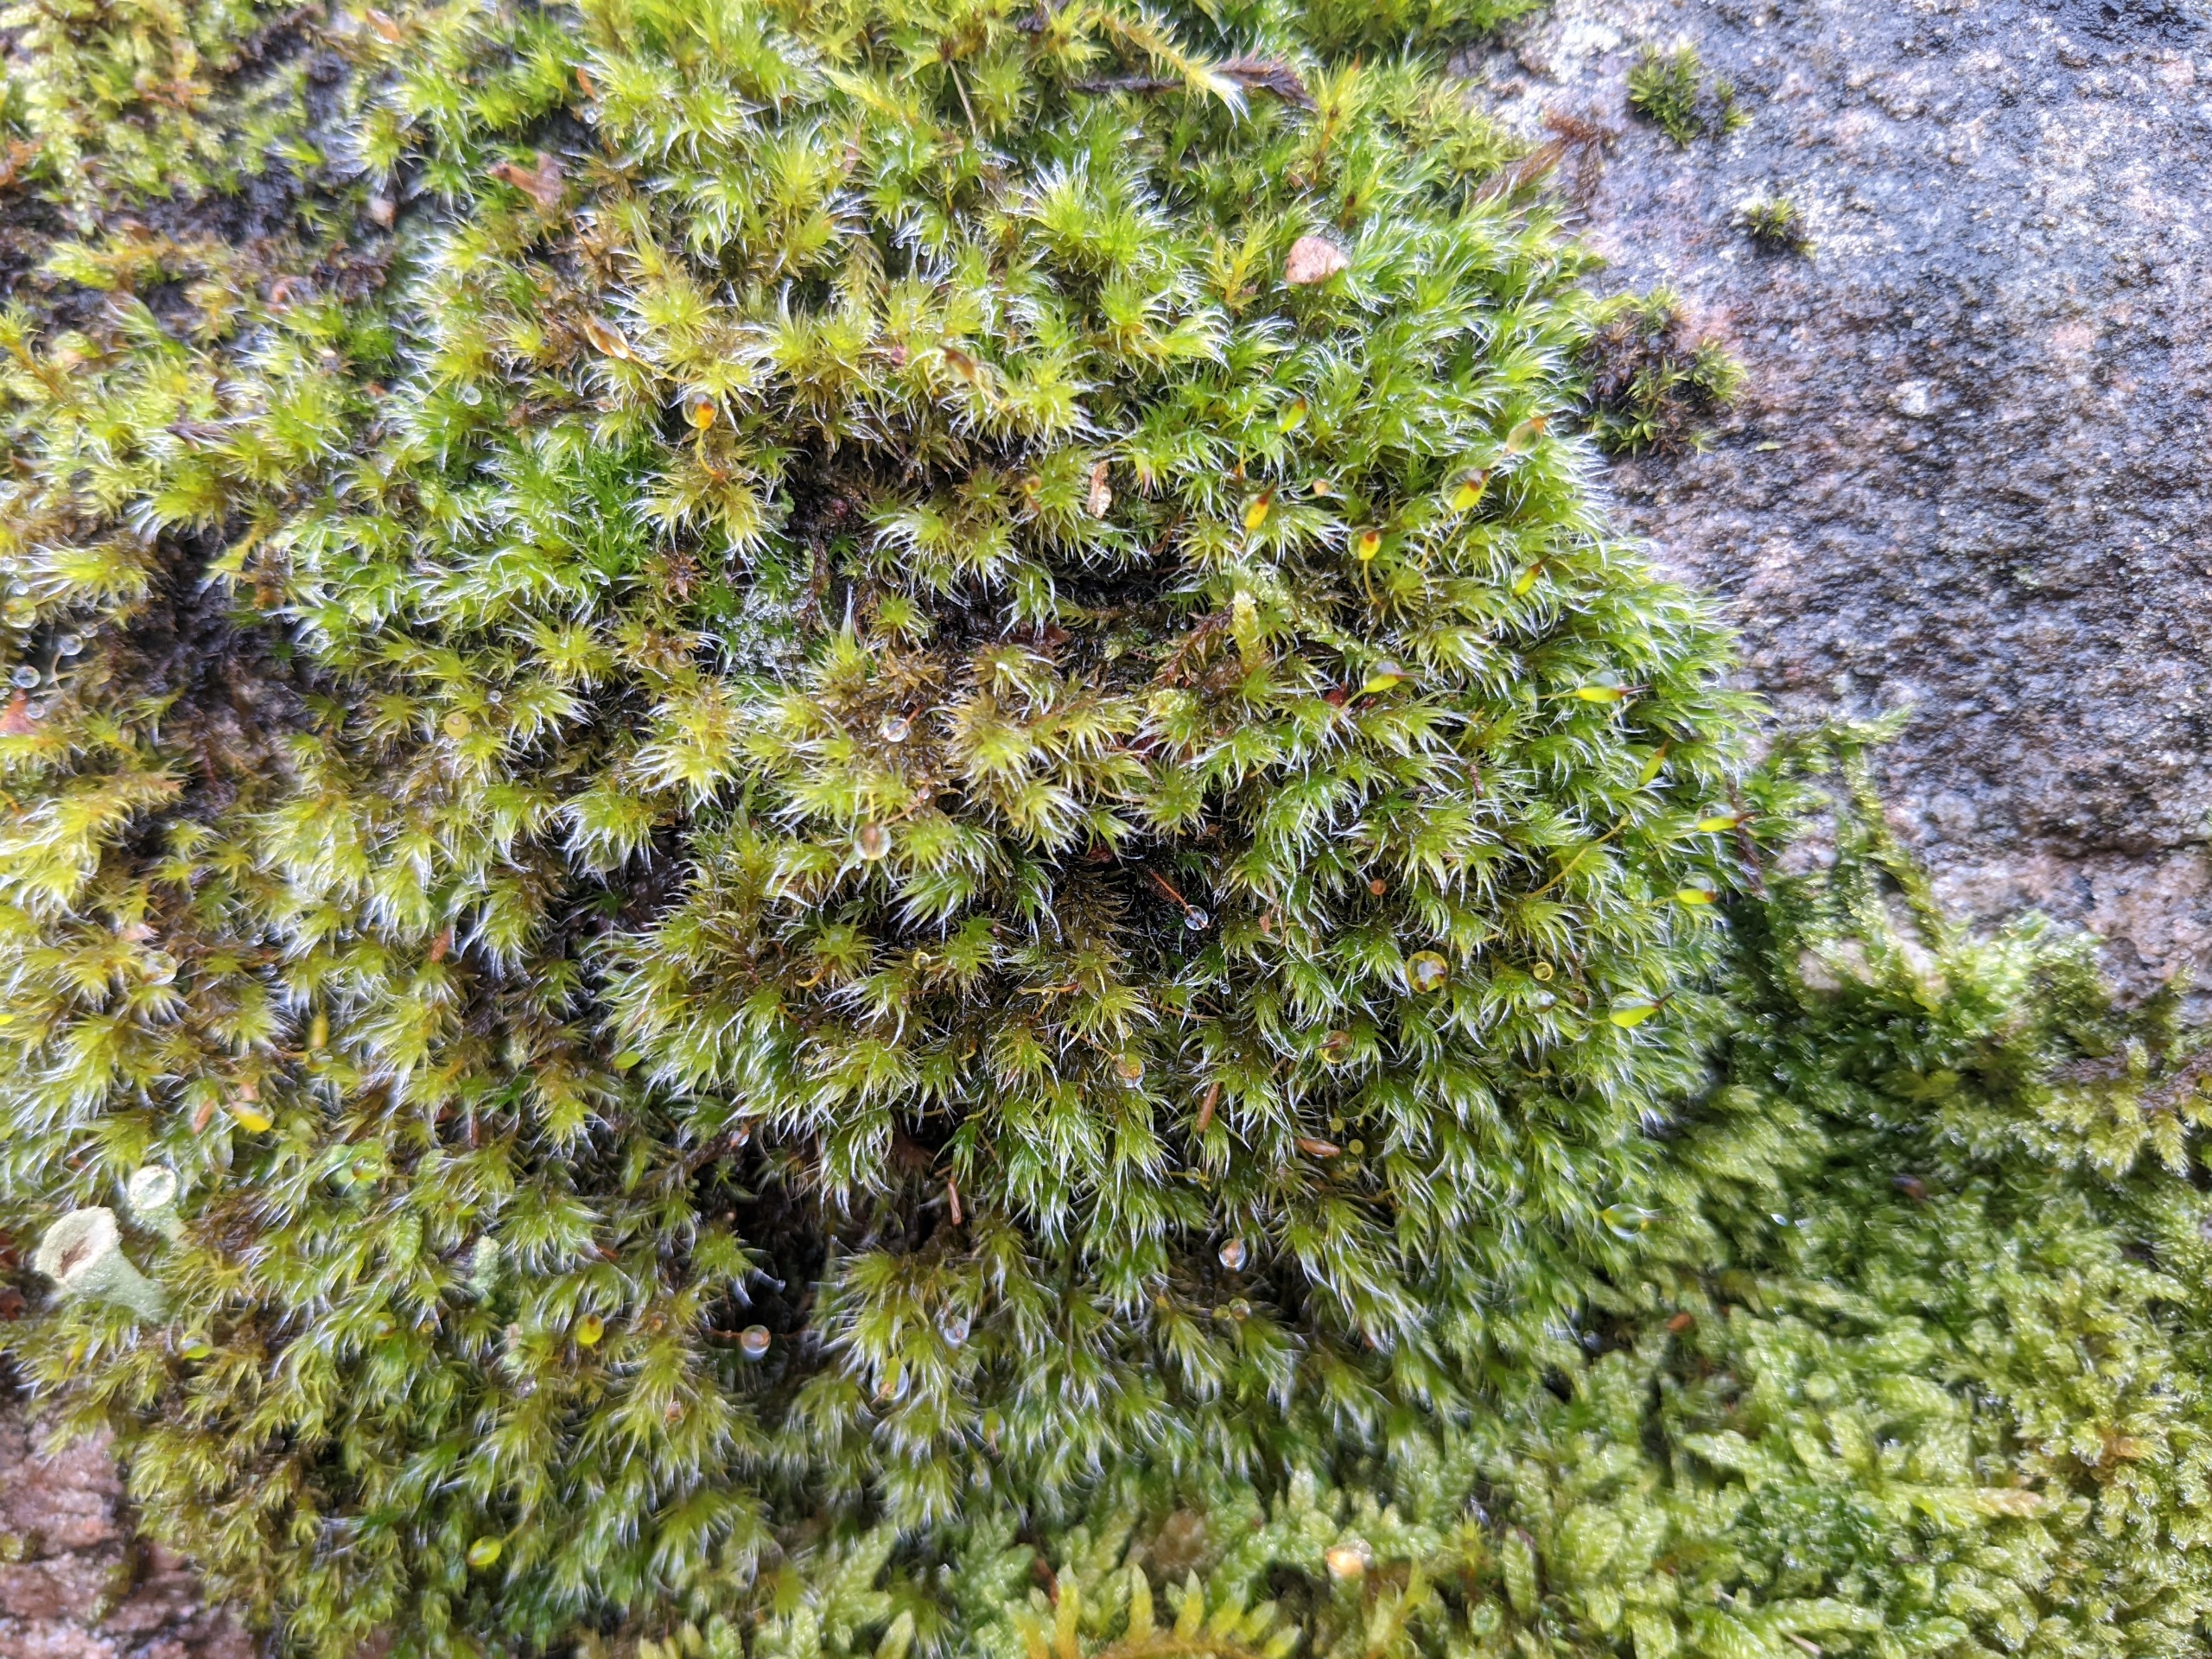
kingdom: Plantae
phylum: Bryophyta
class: Bryopsida
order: Grimmiales
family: Grimmiaceae
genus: Bucklandiella
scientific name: Bucklandiella heterosticha
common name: Sten-børstemos
